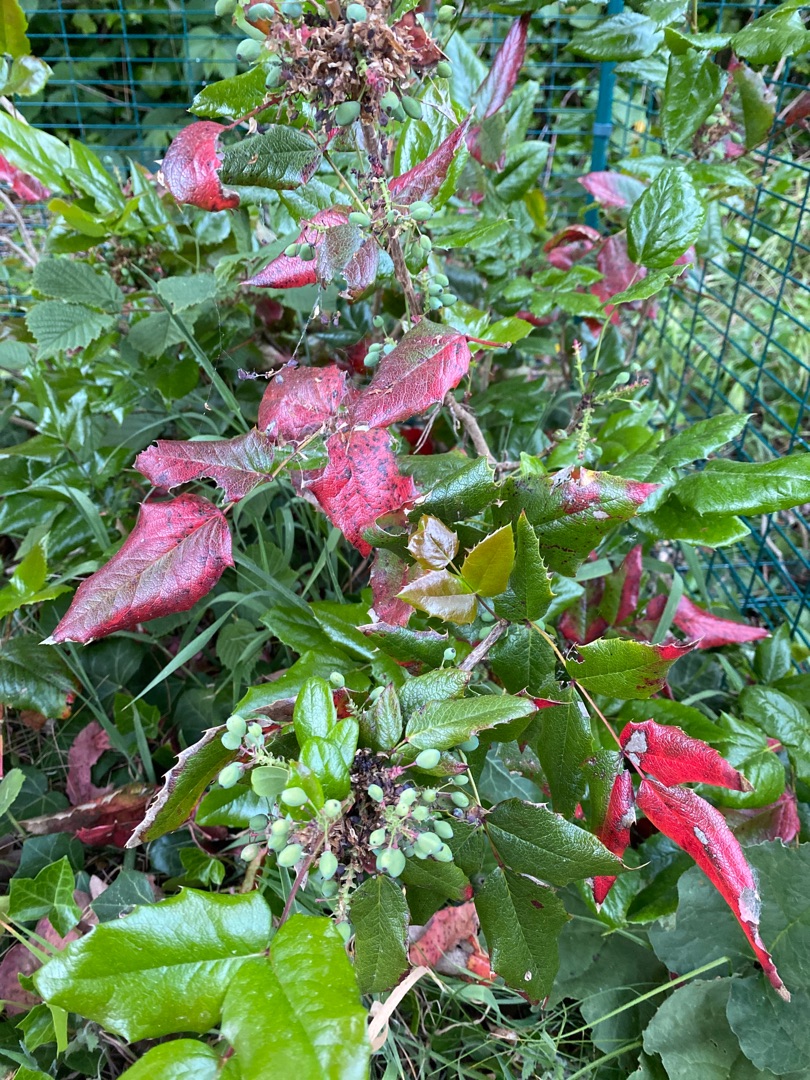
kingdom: Plantae
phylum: Tracheophyta
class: Magnoliopsida
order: Ranunculales
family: Berberidaceae
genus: Mahonia
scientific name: Mahonia aquifolium
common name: Almindelig mahonie
